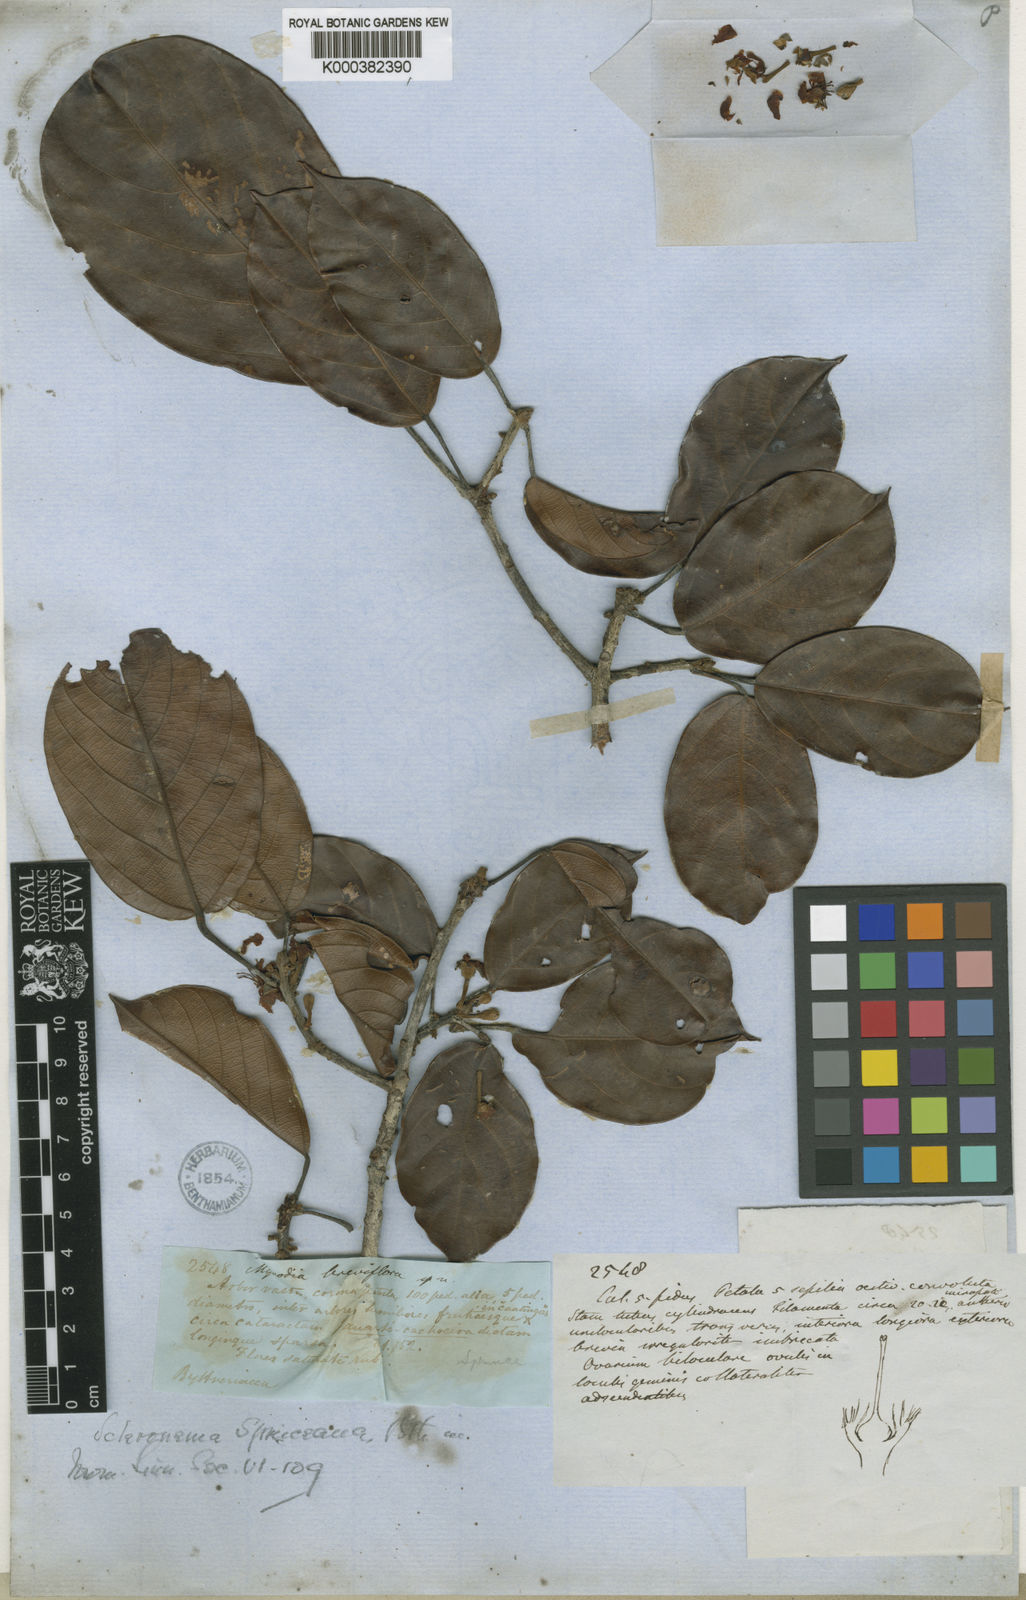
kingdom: Plantae
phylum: Tracheophyta
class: Magnoliopsida
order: Malvales
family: Malvaceae
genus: Scleronema
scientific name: Scleronema
